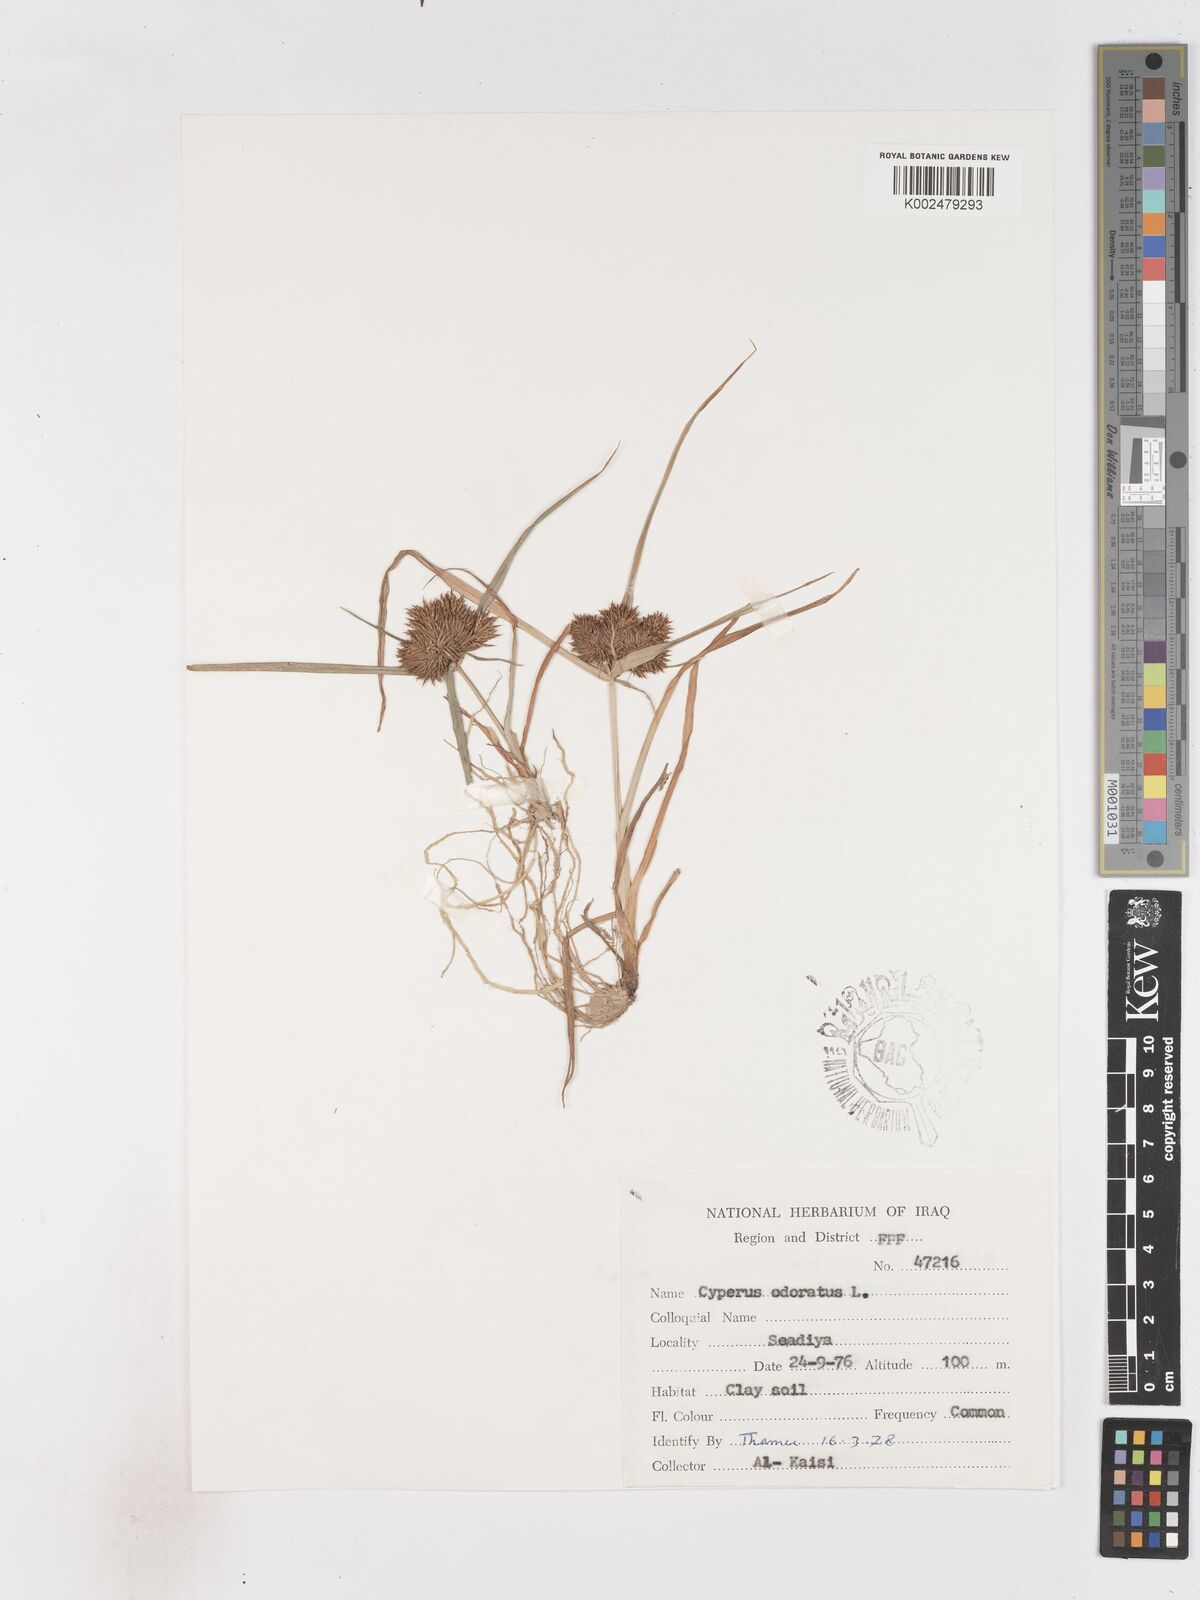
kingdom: Plantae
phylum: Tracheophyta
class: Liliopsida
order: Poales
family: Cyperaceae
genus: Cyperus
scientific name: Cyperus odoratus
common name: Fragrant flatsedge
